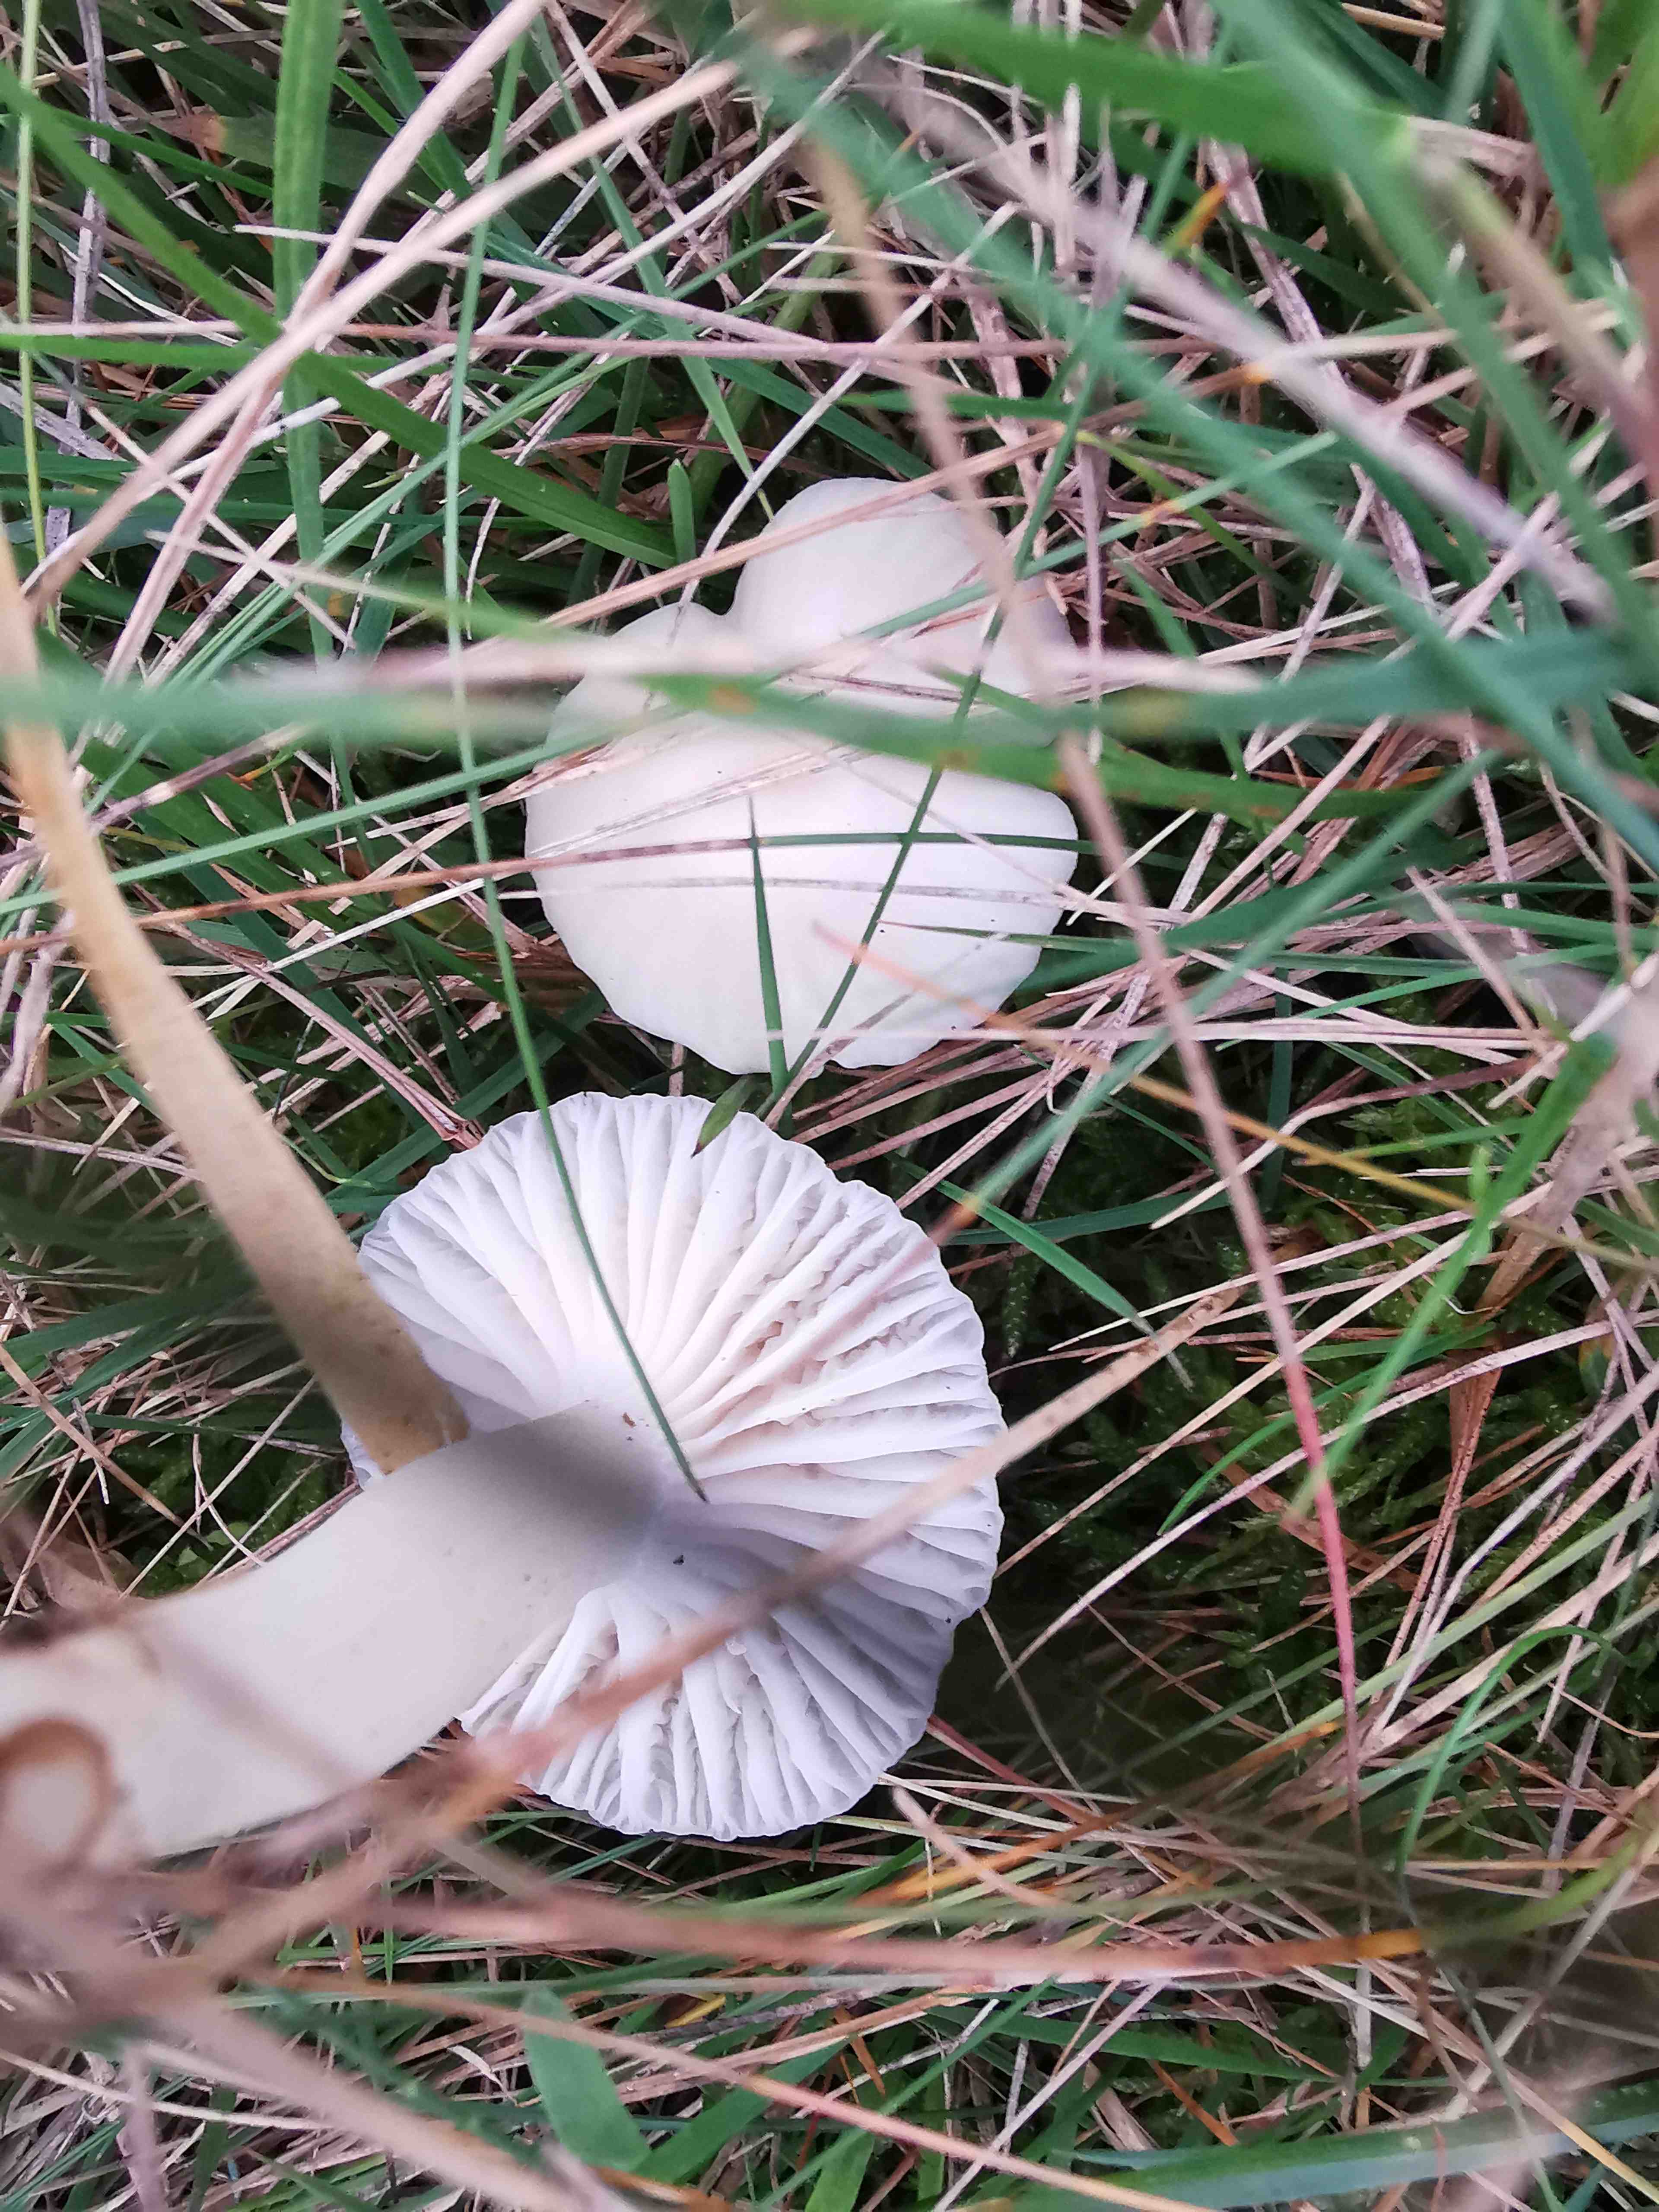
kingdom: Fungi
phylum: Basidiomycota
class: Agaricomycetes
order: Agaricales
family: Hygrophoraceae
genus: Cuphophyllus
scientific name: Cuphophyllus virgineus
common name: snehvid vokshat
